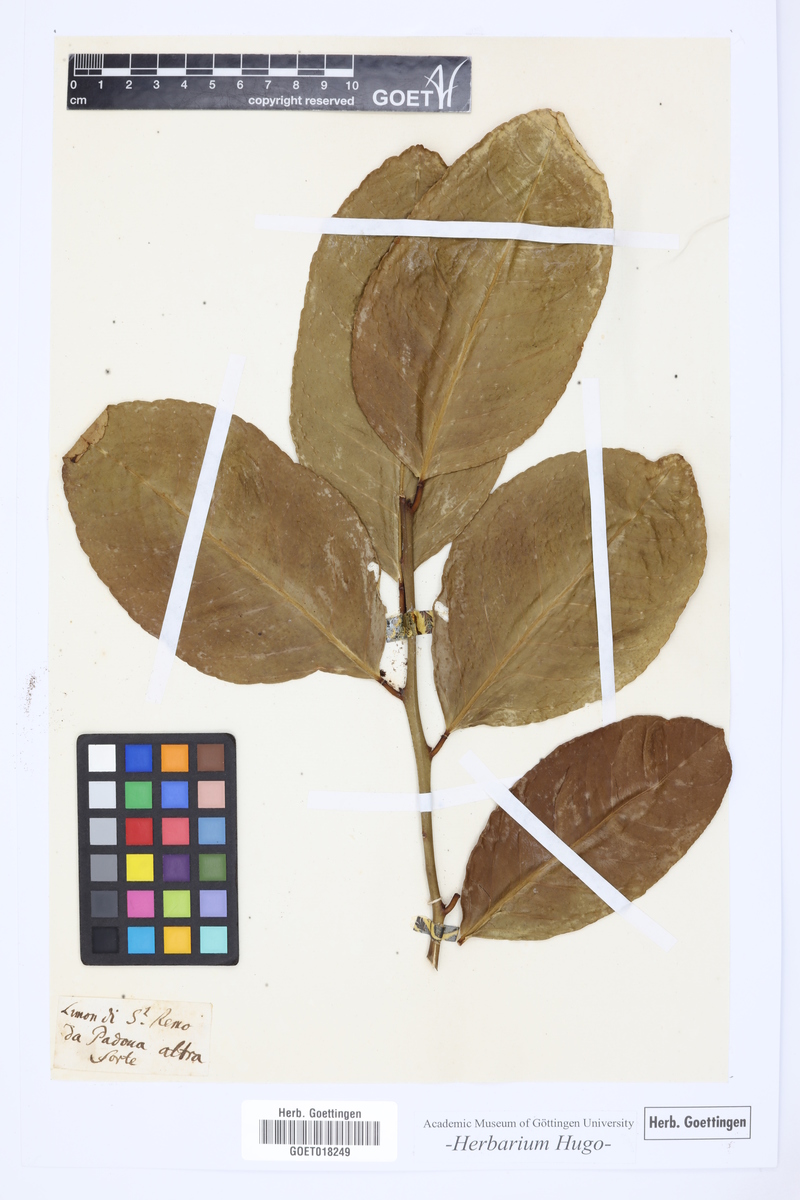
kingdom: Plantae
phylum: Tracheophyta
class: Magnoliopsida
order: Sapindales
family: Rutaceae
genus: Citrus
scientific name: Citrus
